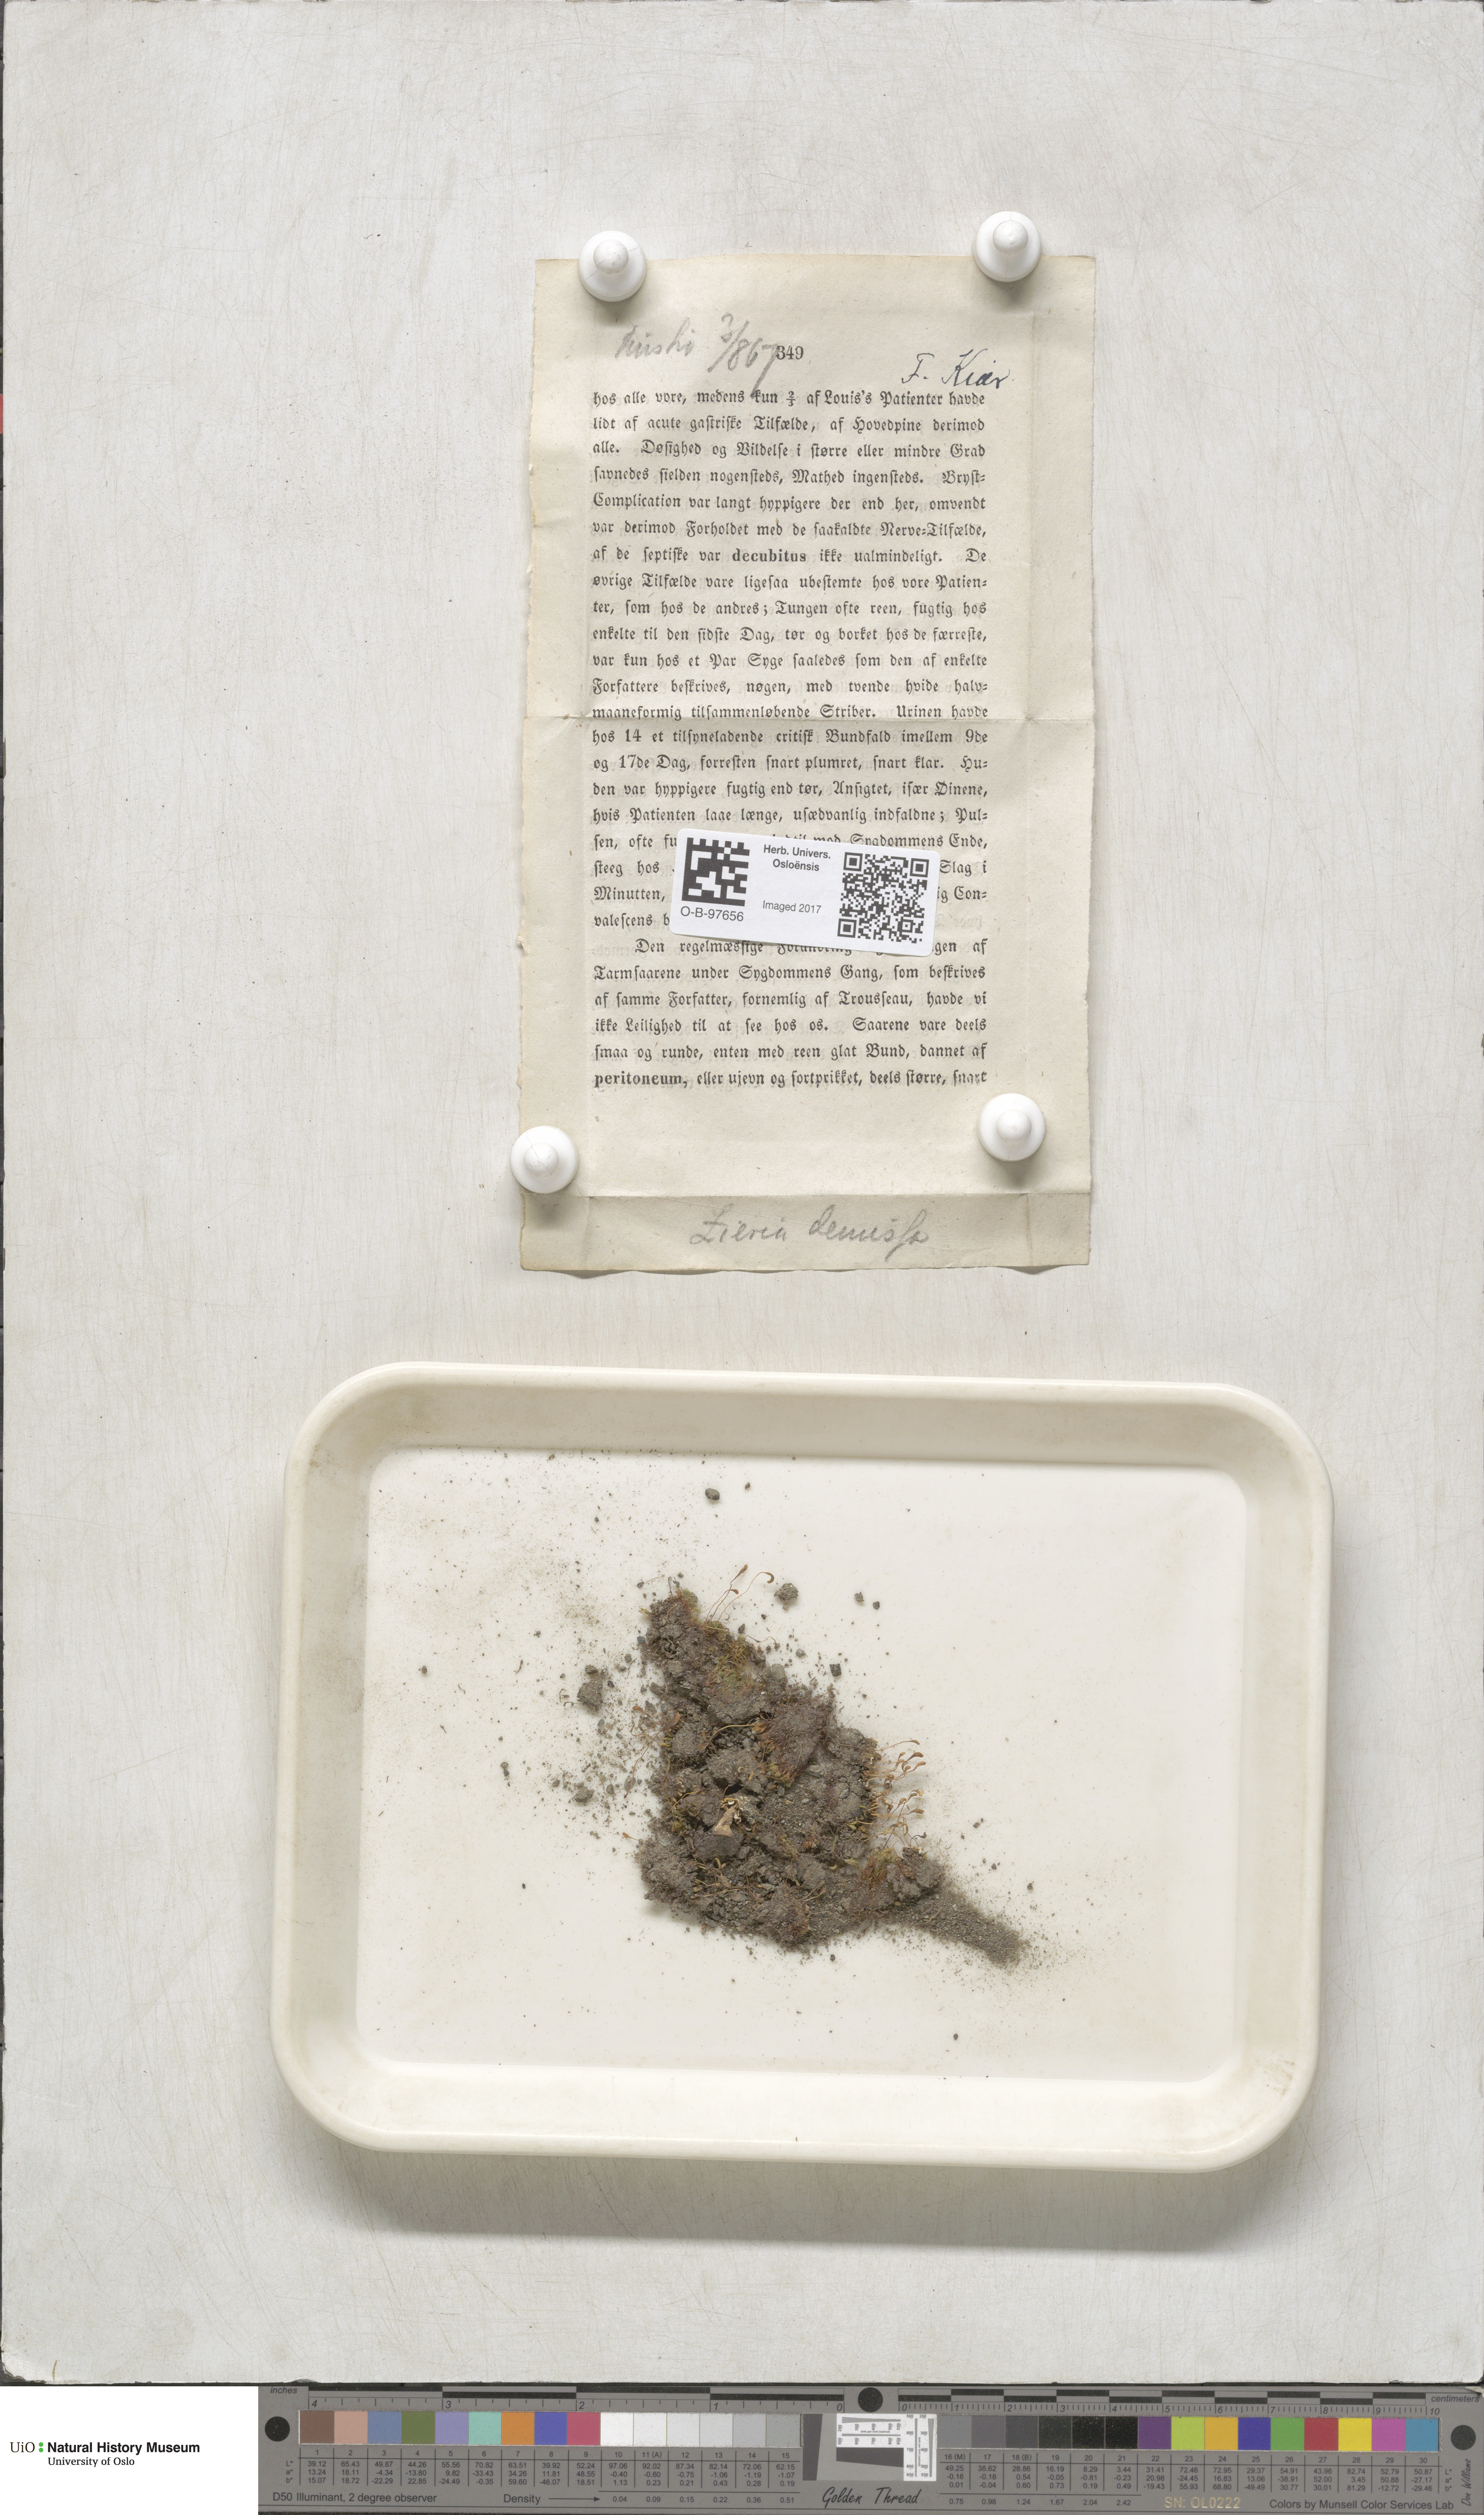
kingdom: Plantae
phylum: Bryophyta
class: Bryopsida
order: Bryales
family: Bryaceae
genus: Plagiobryum
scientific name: Plagiobryum demissum
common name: Drooping hump moss
